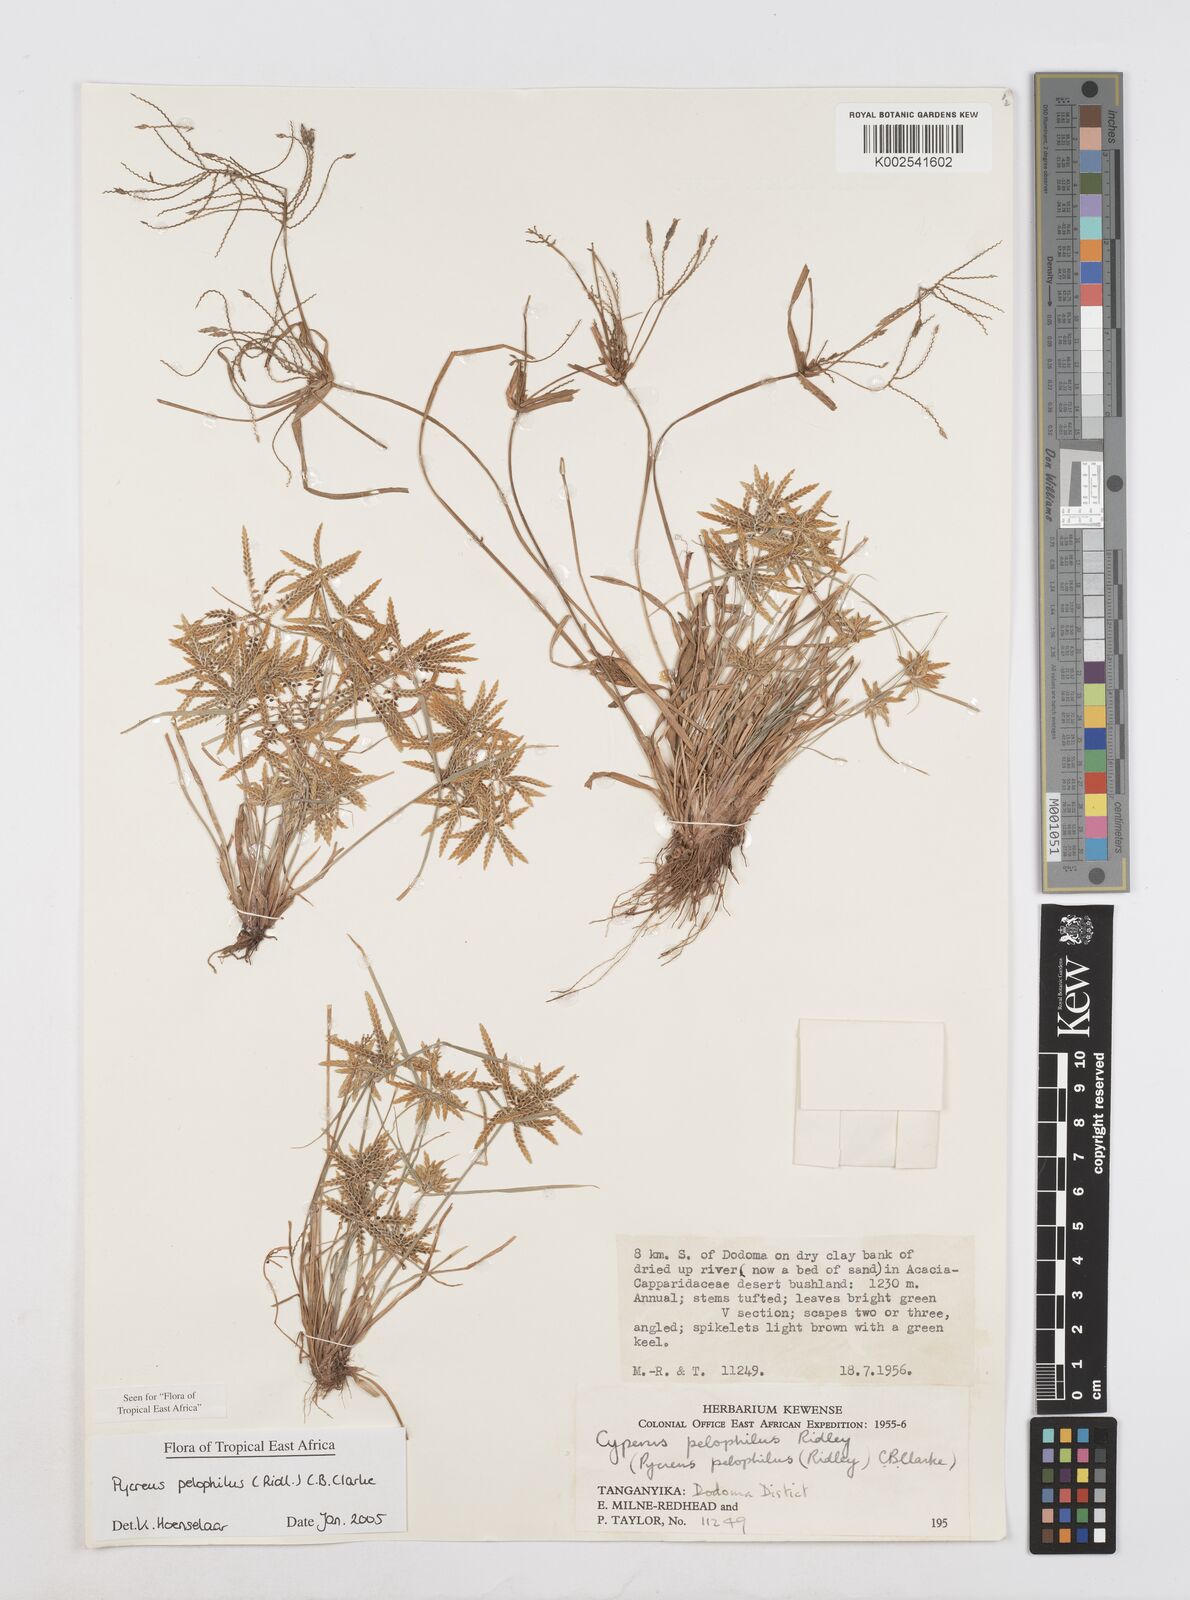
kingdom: Plantae
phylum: Tracheophyta
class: Liliopsida
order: Poales
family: Cyperaceae
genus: Cyperus
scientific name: Cyperus pelophilus
